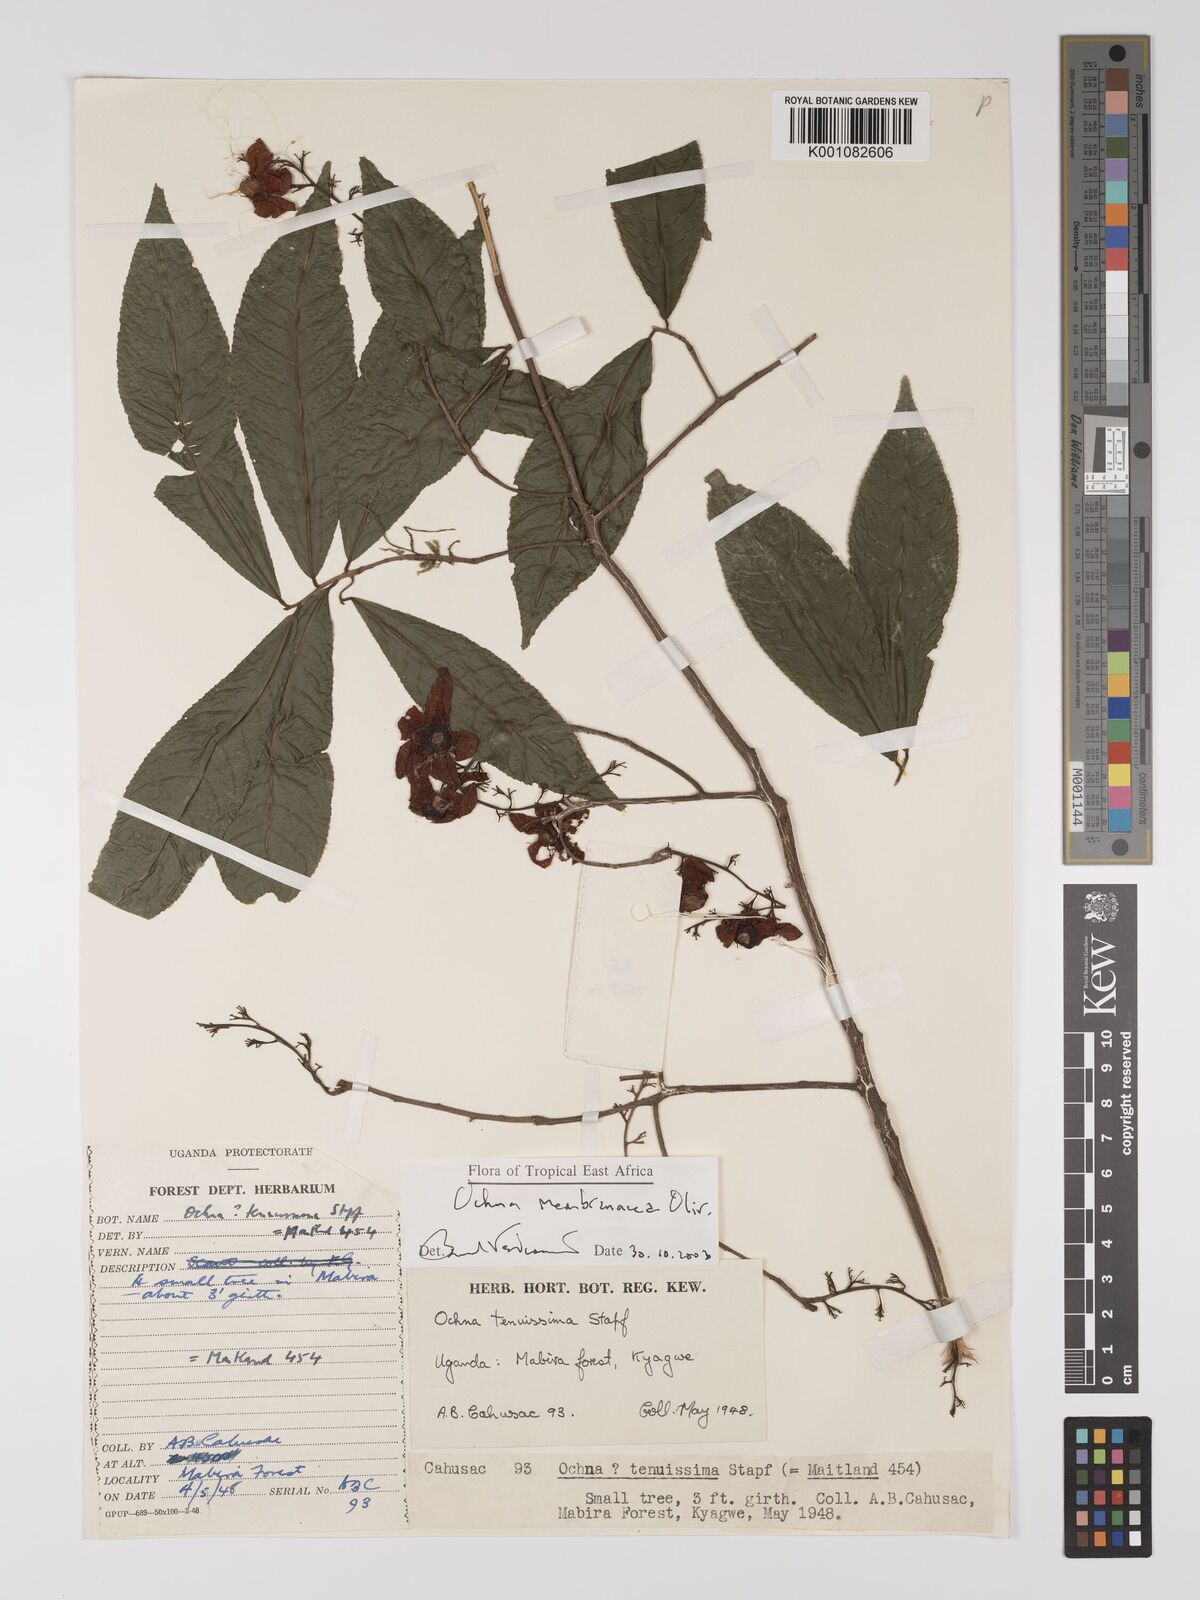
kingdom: Plantae
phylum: Tracheophyta
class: Magnoliopsida
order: Malpighiales
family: Ochnaceae
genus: Ochna
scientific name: Ochna membranacea
